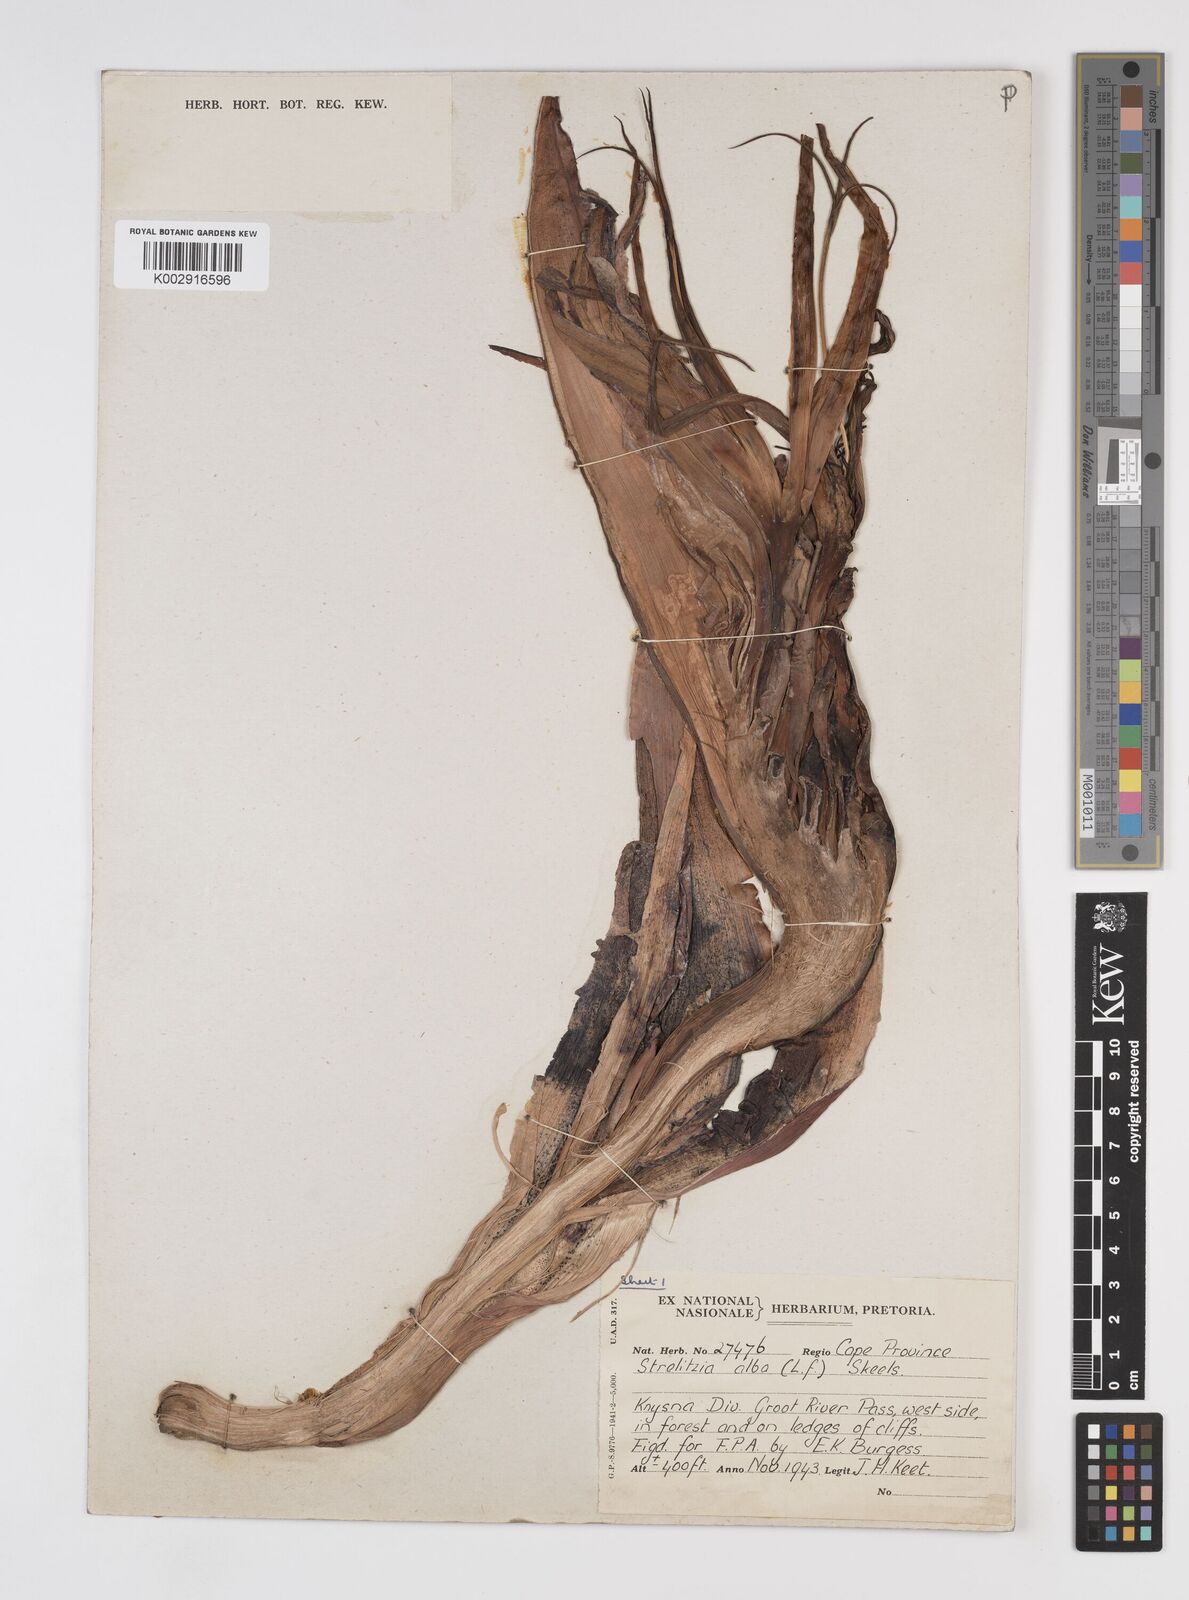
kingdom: Plantae
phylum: Tracheophyta
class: Liliopsida
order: Zingiberales
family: Strelitziaceae
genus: Strelitzia
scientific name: Strelitzia alba
